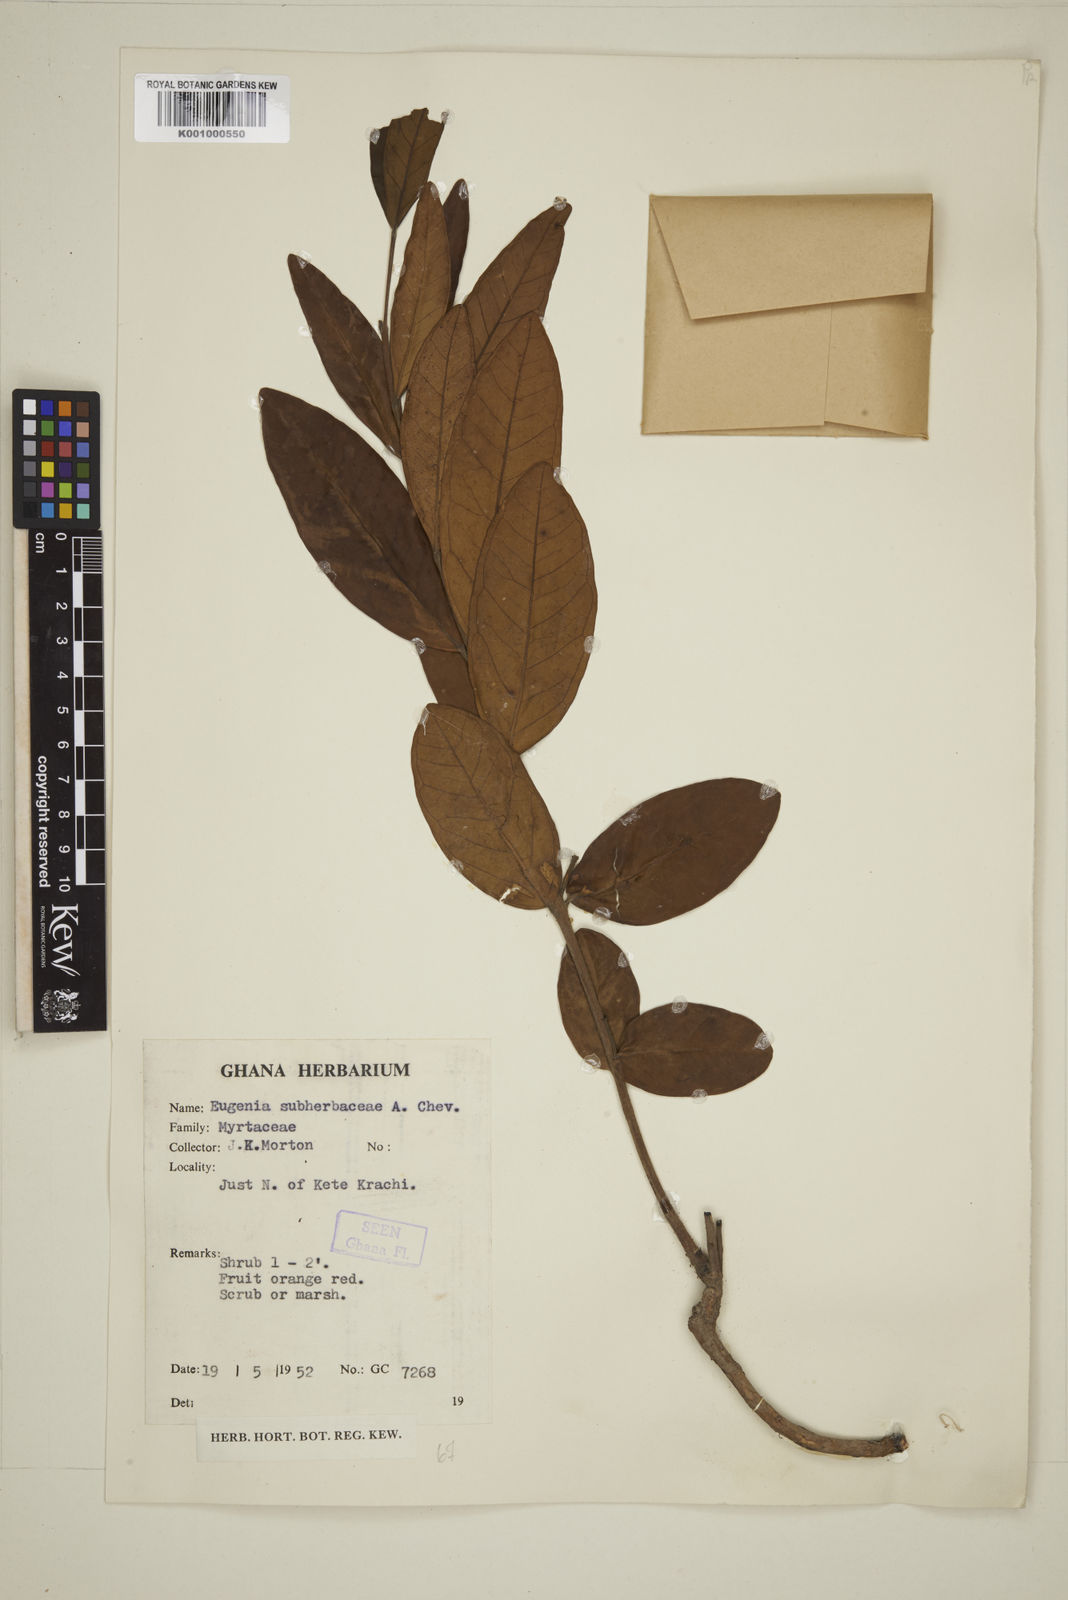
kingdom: Plantae
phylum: Tracheophyta
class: Magnoliopsida
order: Myrtales
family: Myrtaceae
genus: Eugenia
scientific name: Eugenia subherbacea
